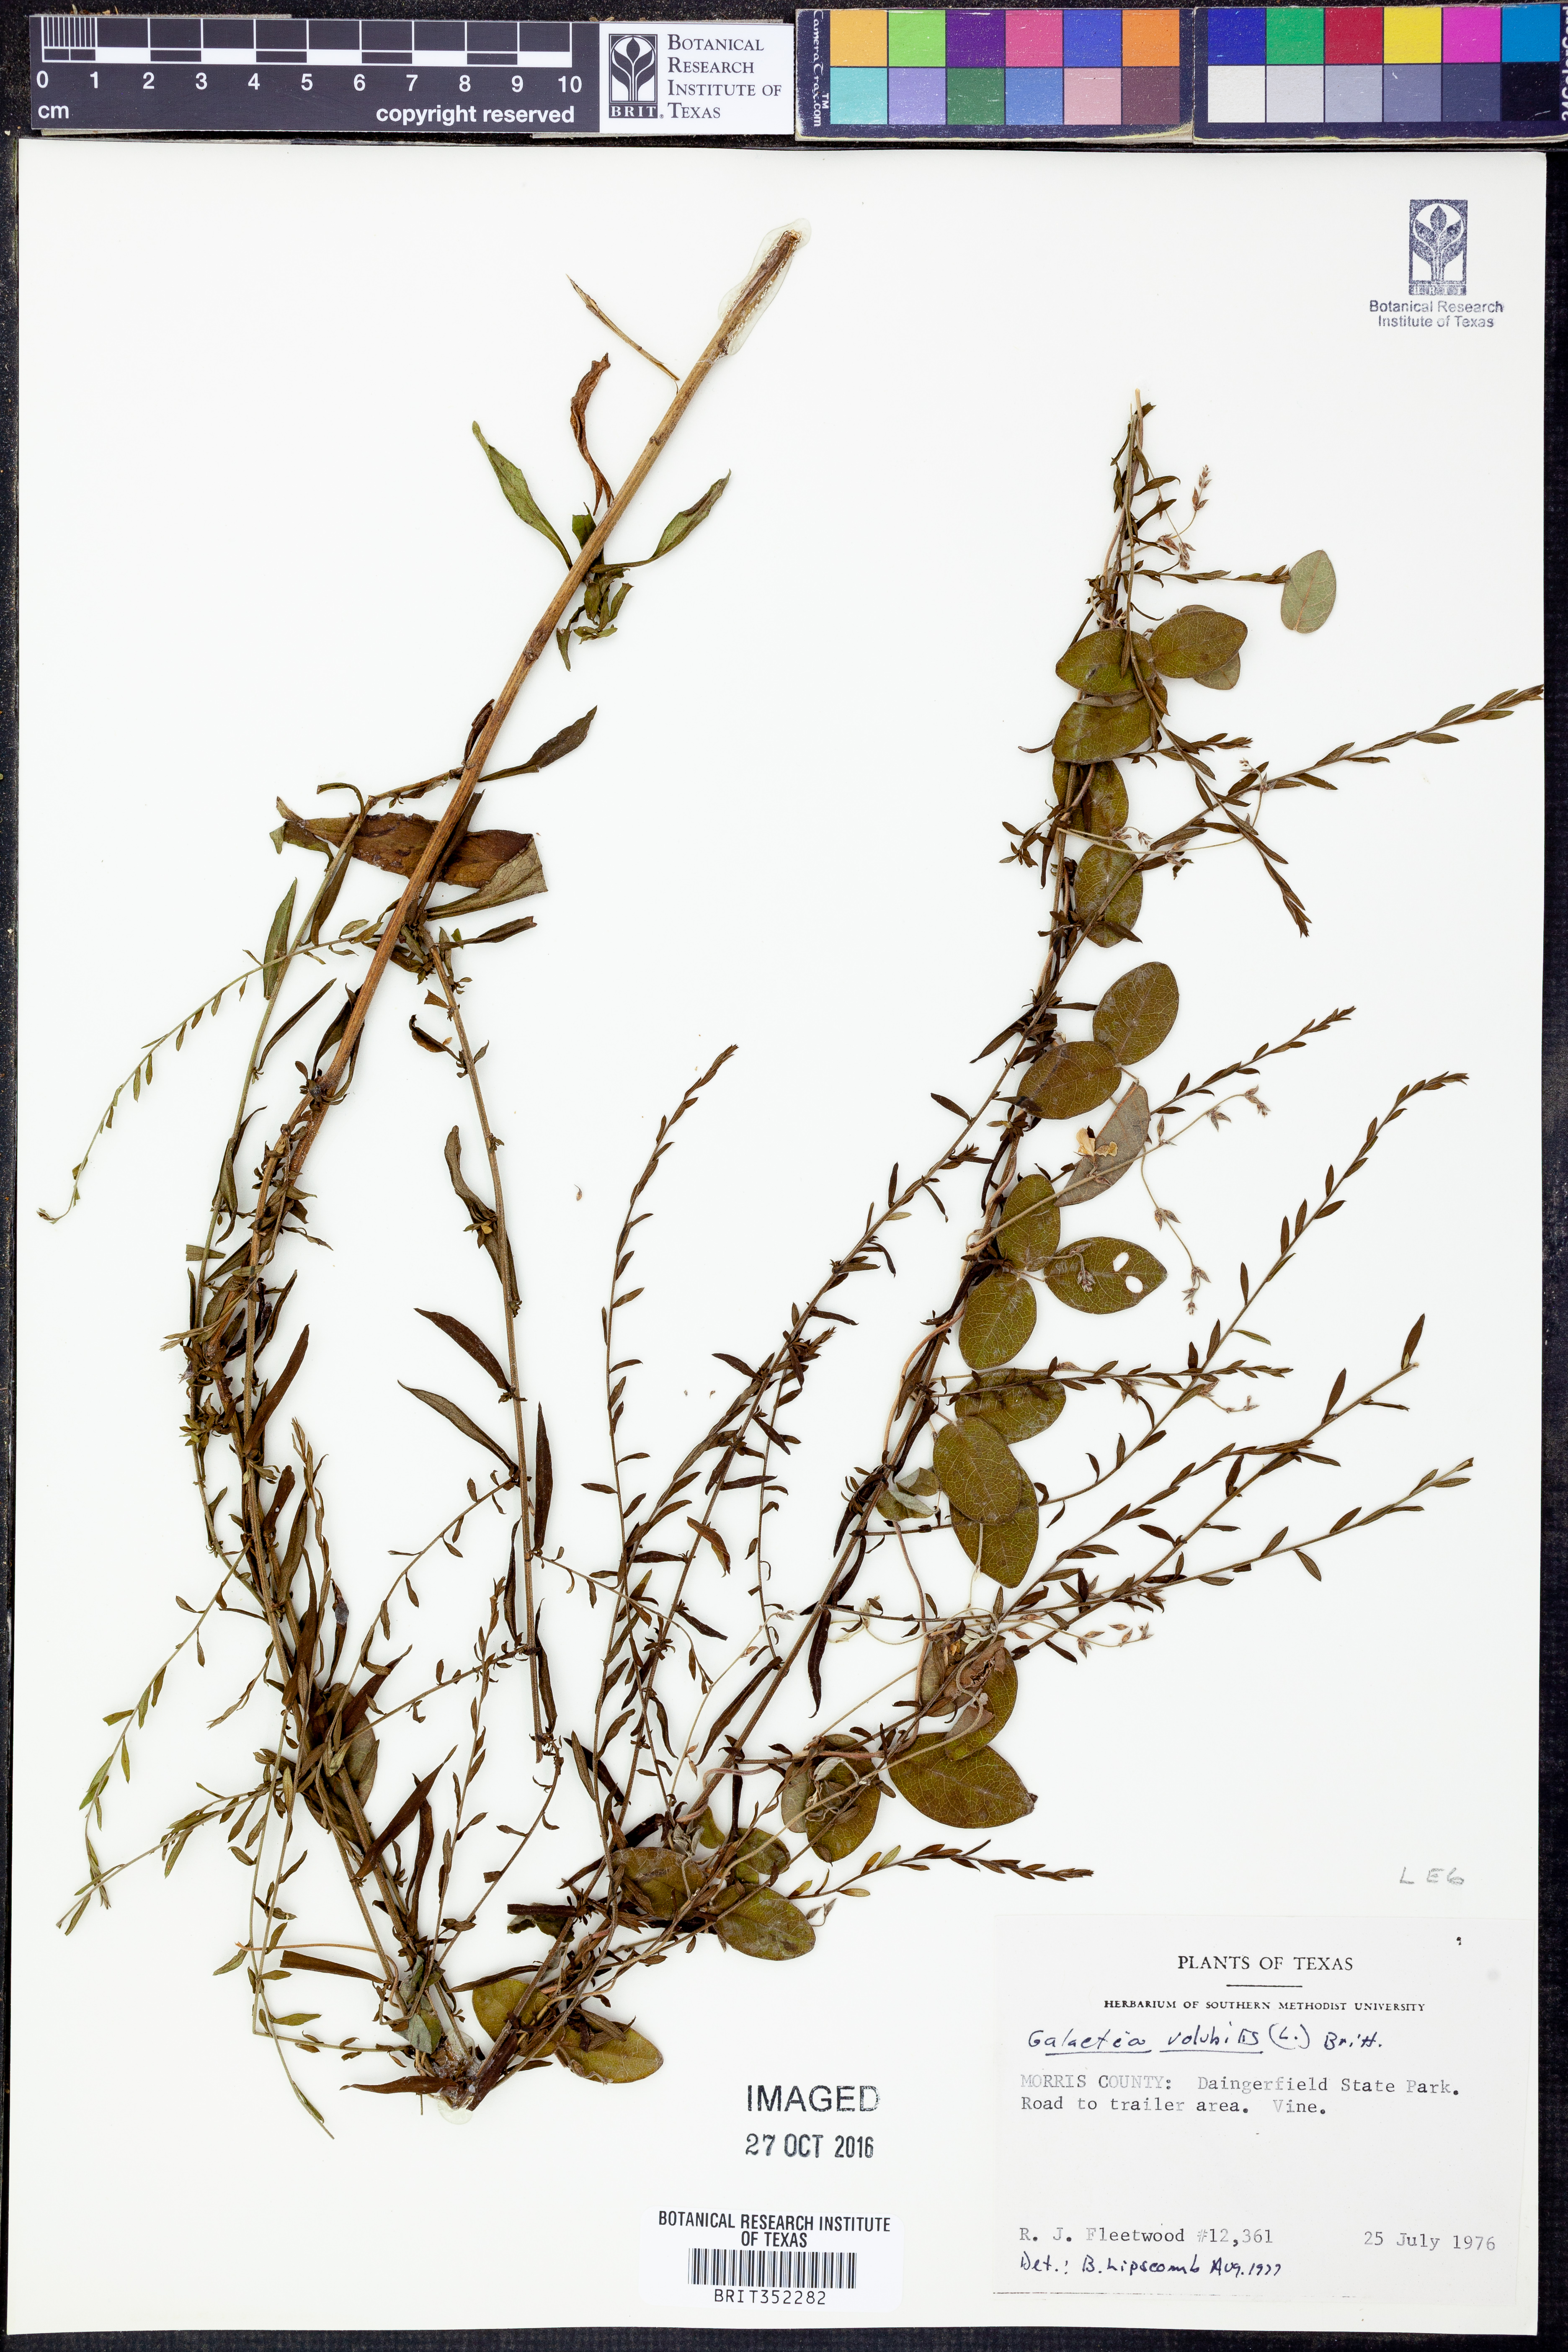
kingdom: Plantae
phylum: Tracheophyta
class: Magnoliopsida
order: Fabales
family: Fabaceae
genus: Galactia
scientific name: Galactia volubilis
